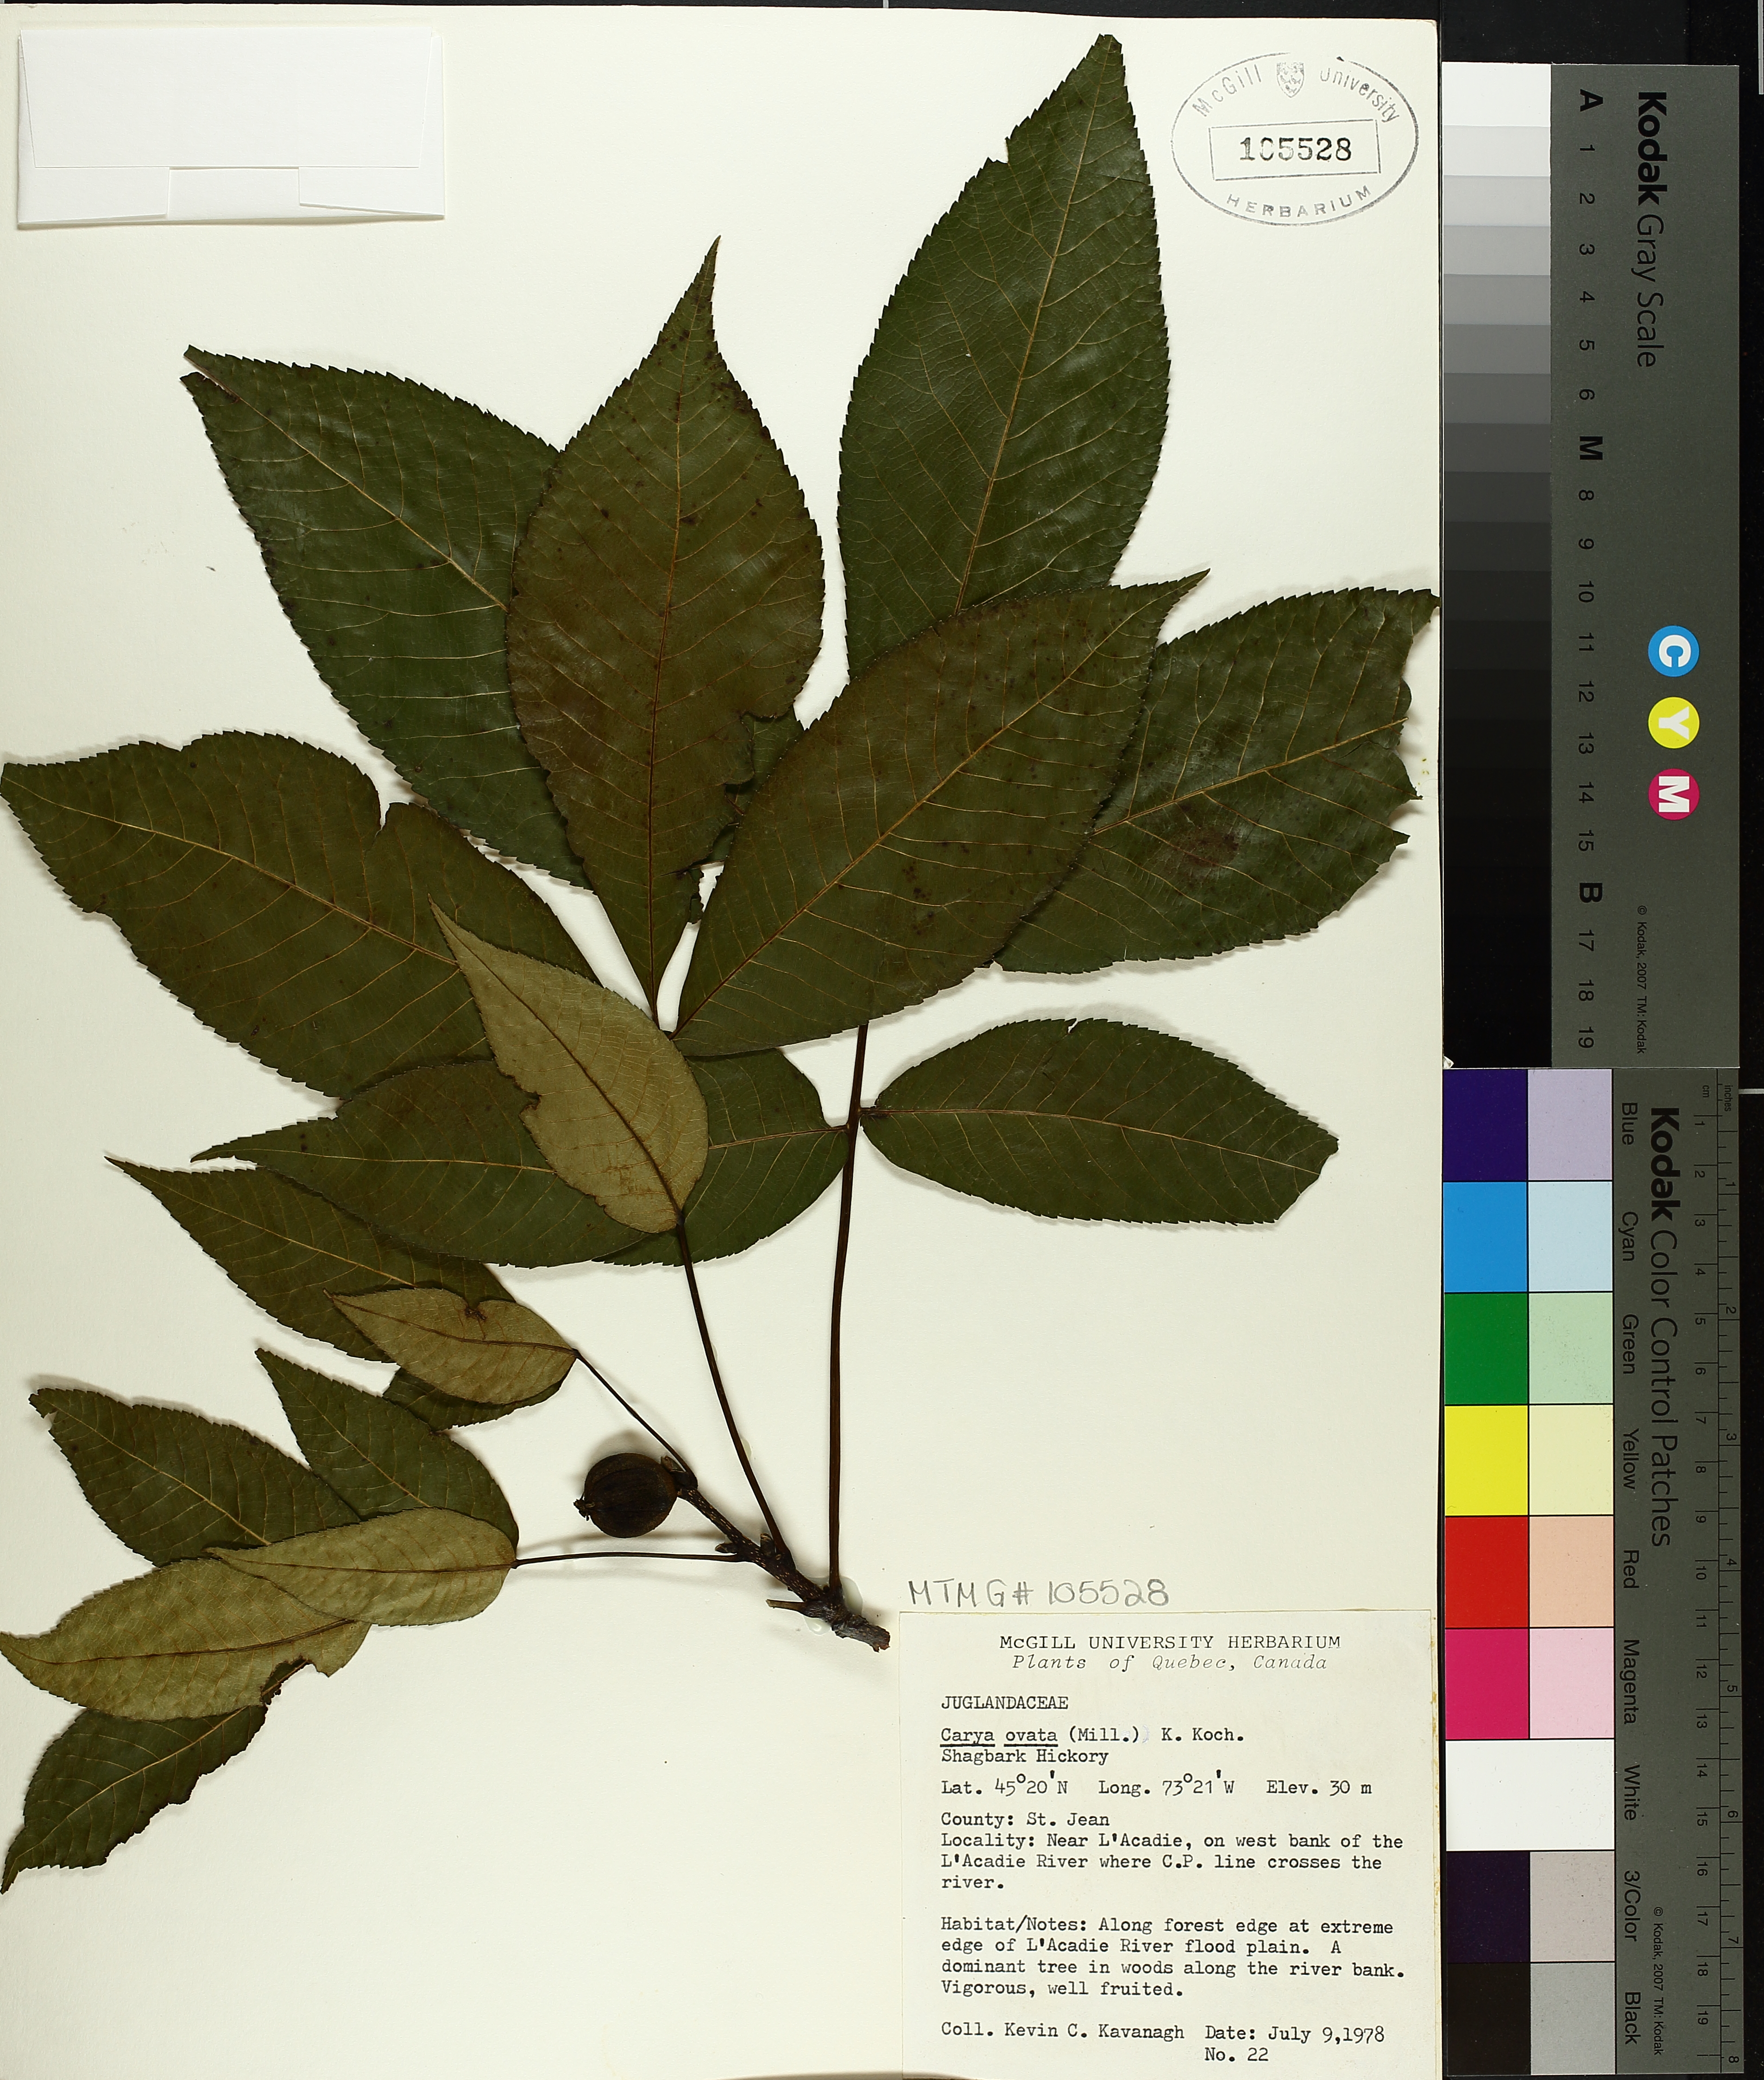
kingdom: Plantae
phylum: Tracheophyta
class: Magnoliopsida
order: Fagales
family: Juglandaceae
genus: Carya
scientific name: Carya ovata
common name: Shagbark hickory
